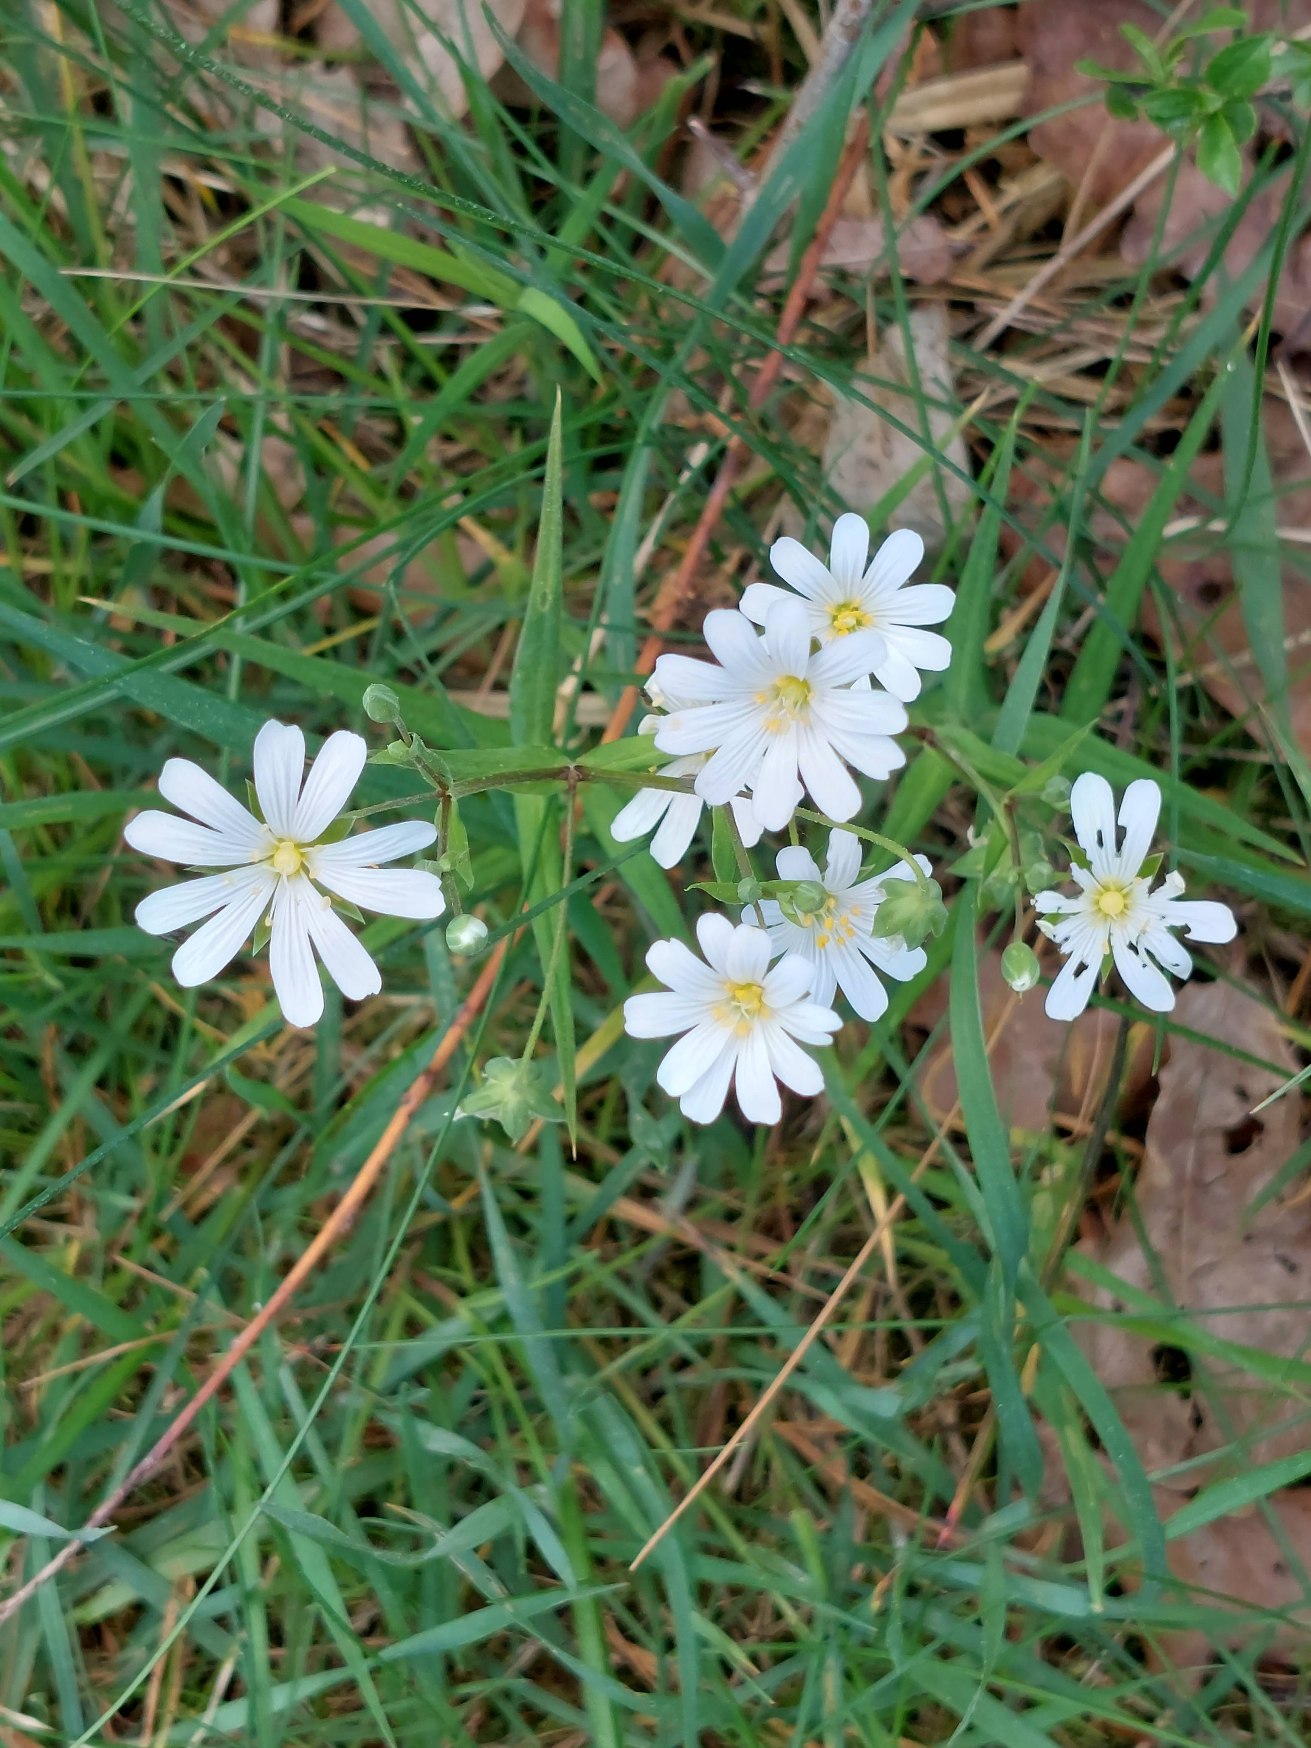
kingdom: Plantae
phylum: Tracheophyta
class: Magnoliopsida
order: Caryophyllales
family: Caryophyllaceae
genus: Rabelera
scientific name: Rabelera holostea
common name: Stor fladstjerne
